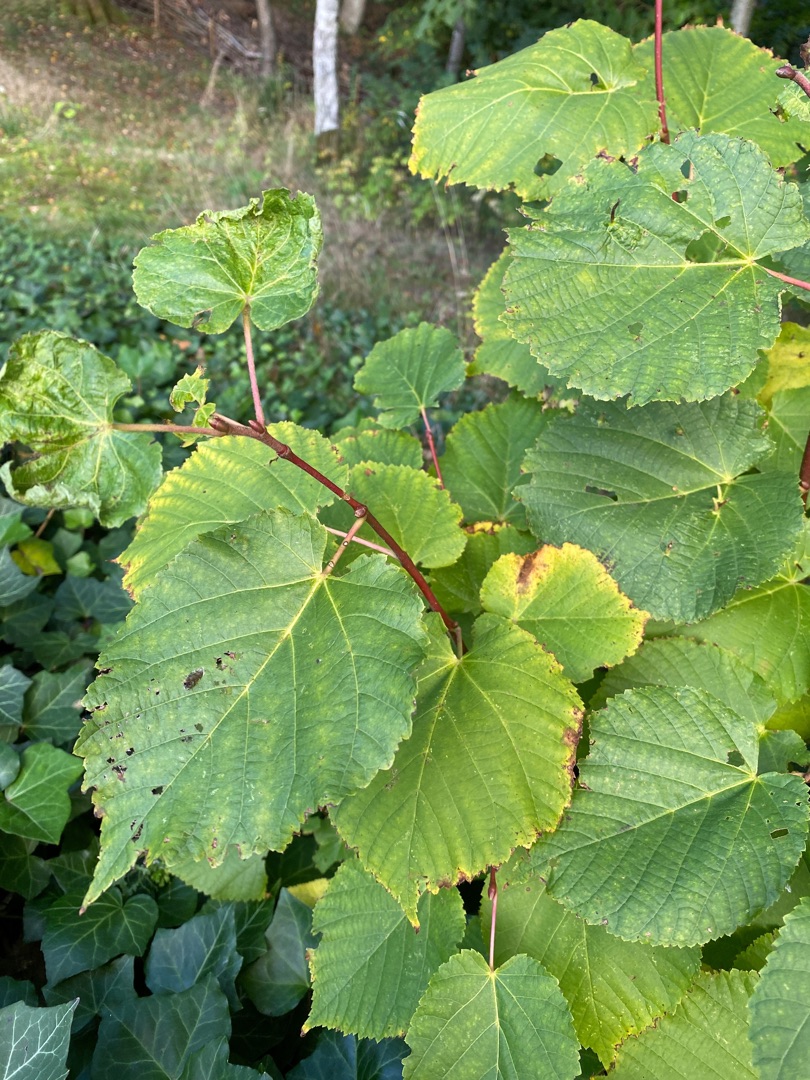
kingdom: Plantae
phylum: Tracheophyta
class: Magnoliopsida
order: Malvales
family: Malvaceae
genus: Tilia
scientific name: Tilia europaea
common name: Park-lind
